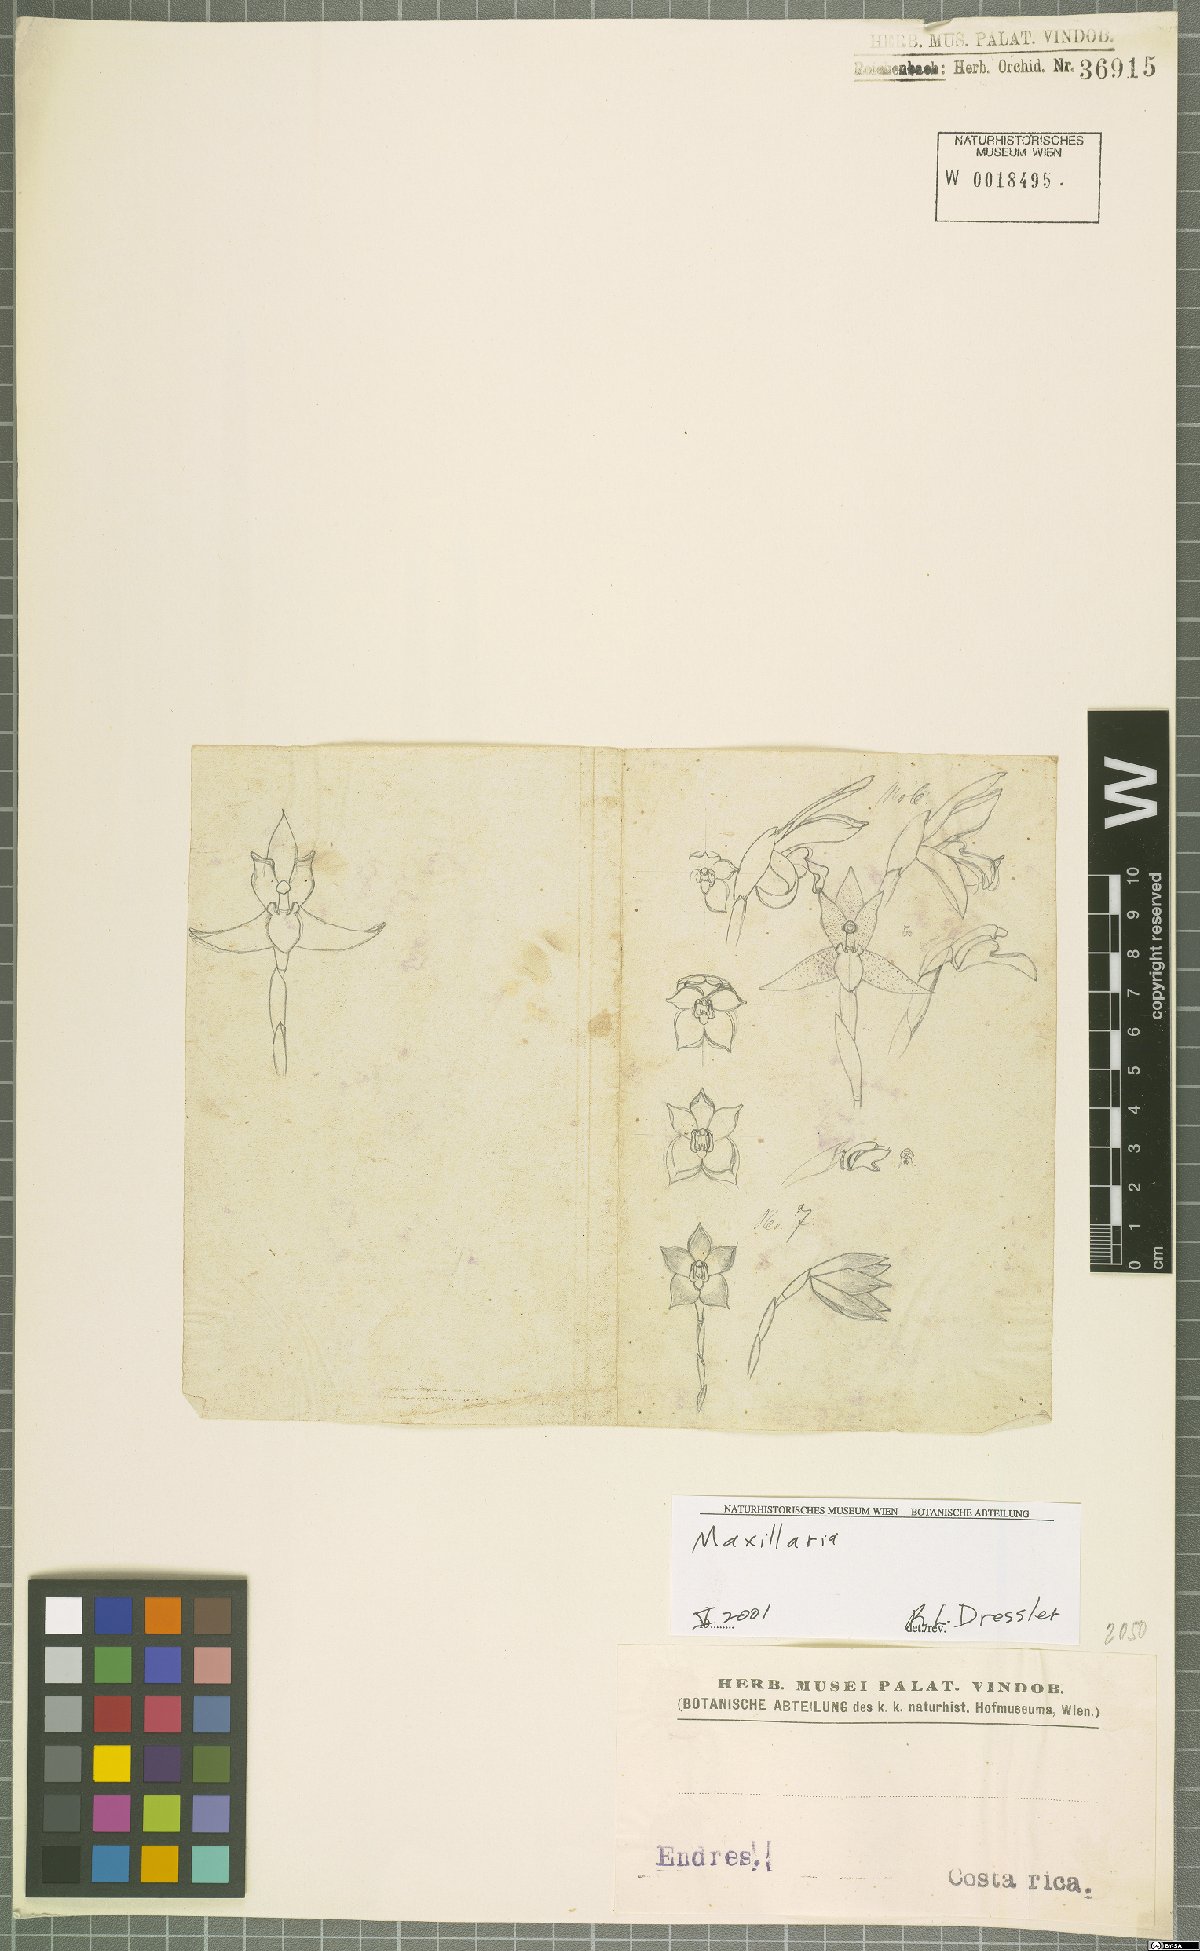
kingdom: Plantae
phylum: Tracheophyta
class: Liliopsida
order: Asparagales
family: Orchidaceae
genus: Maxillaria
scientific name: Maxillaria
